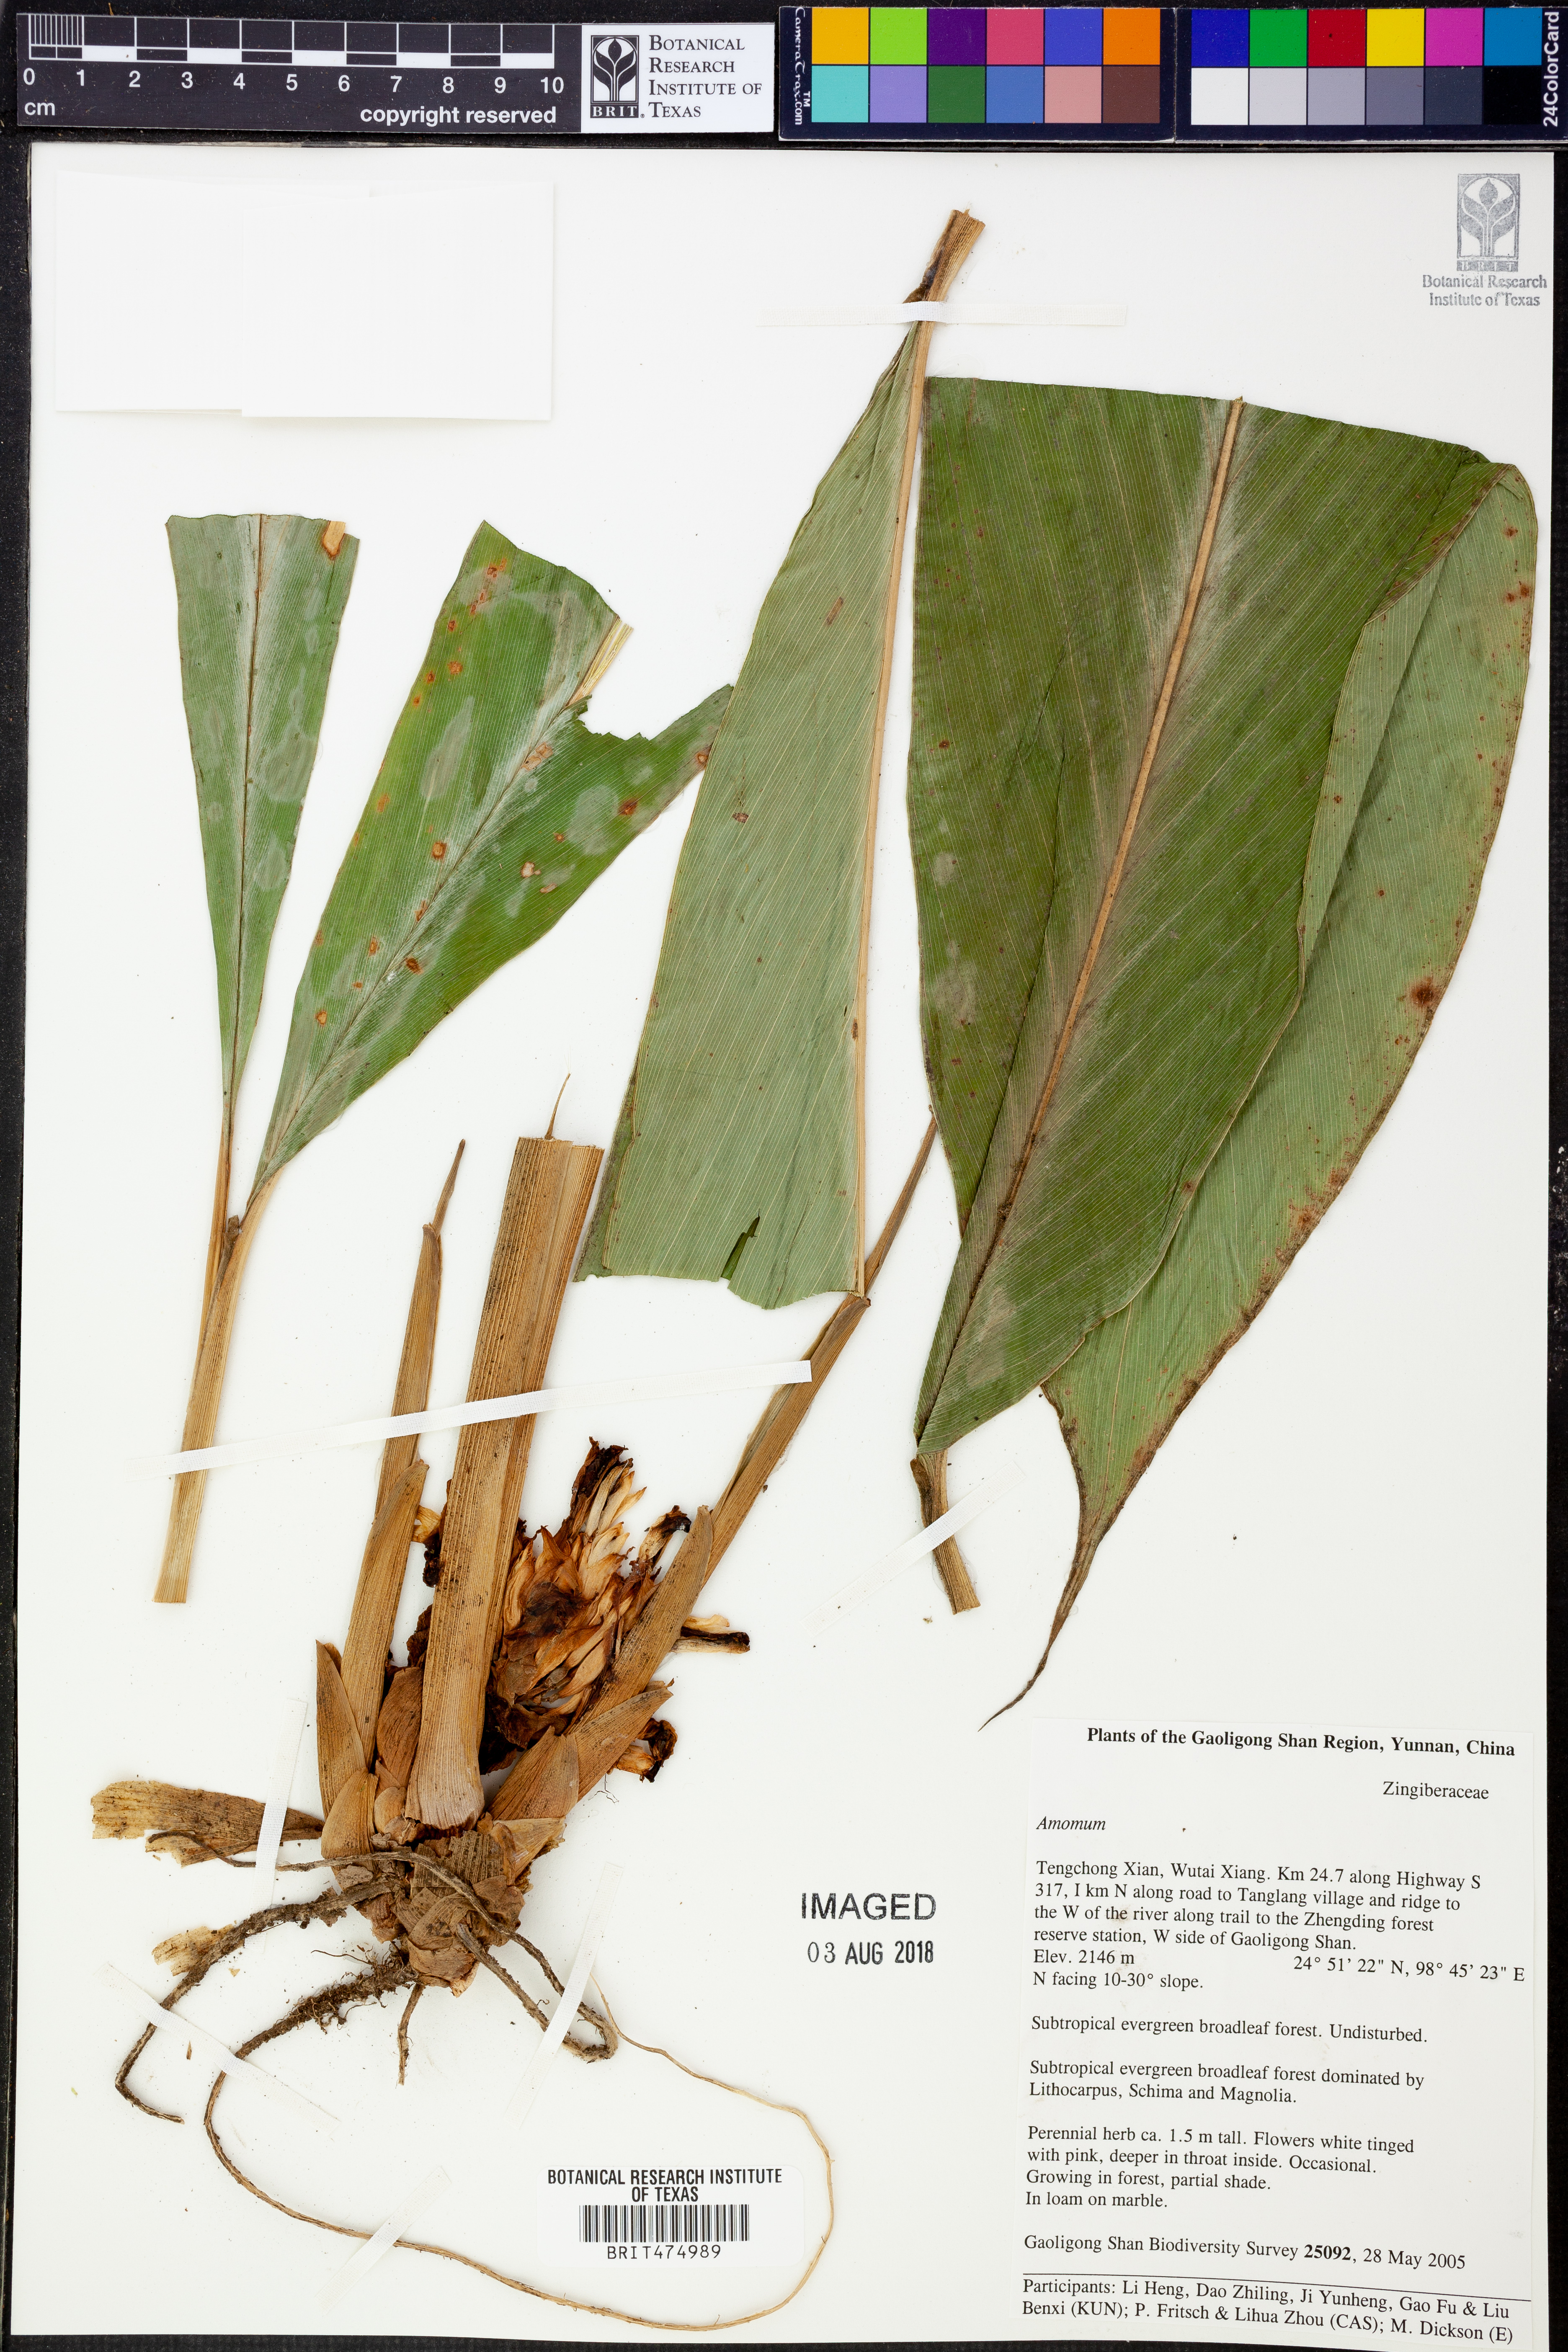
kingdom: Plantae
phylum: Tracheophyta
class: Liliopsida
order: Zingiberales
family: Zingiberaceae
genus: Amomum
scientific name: Amomum
